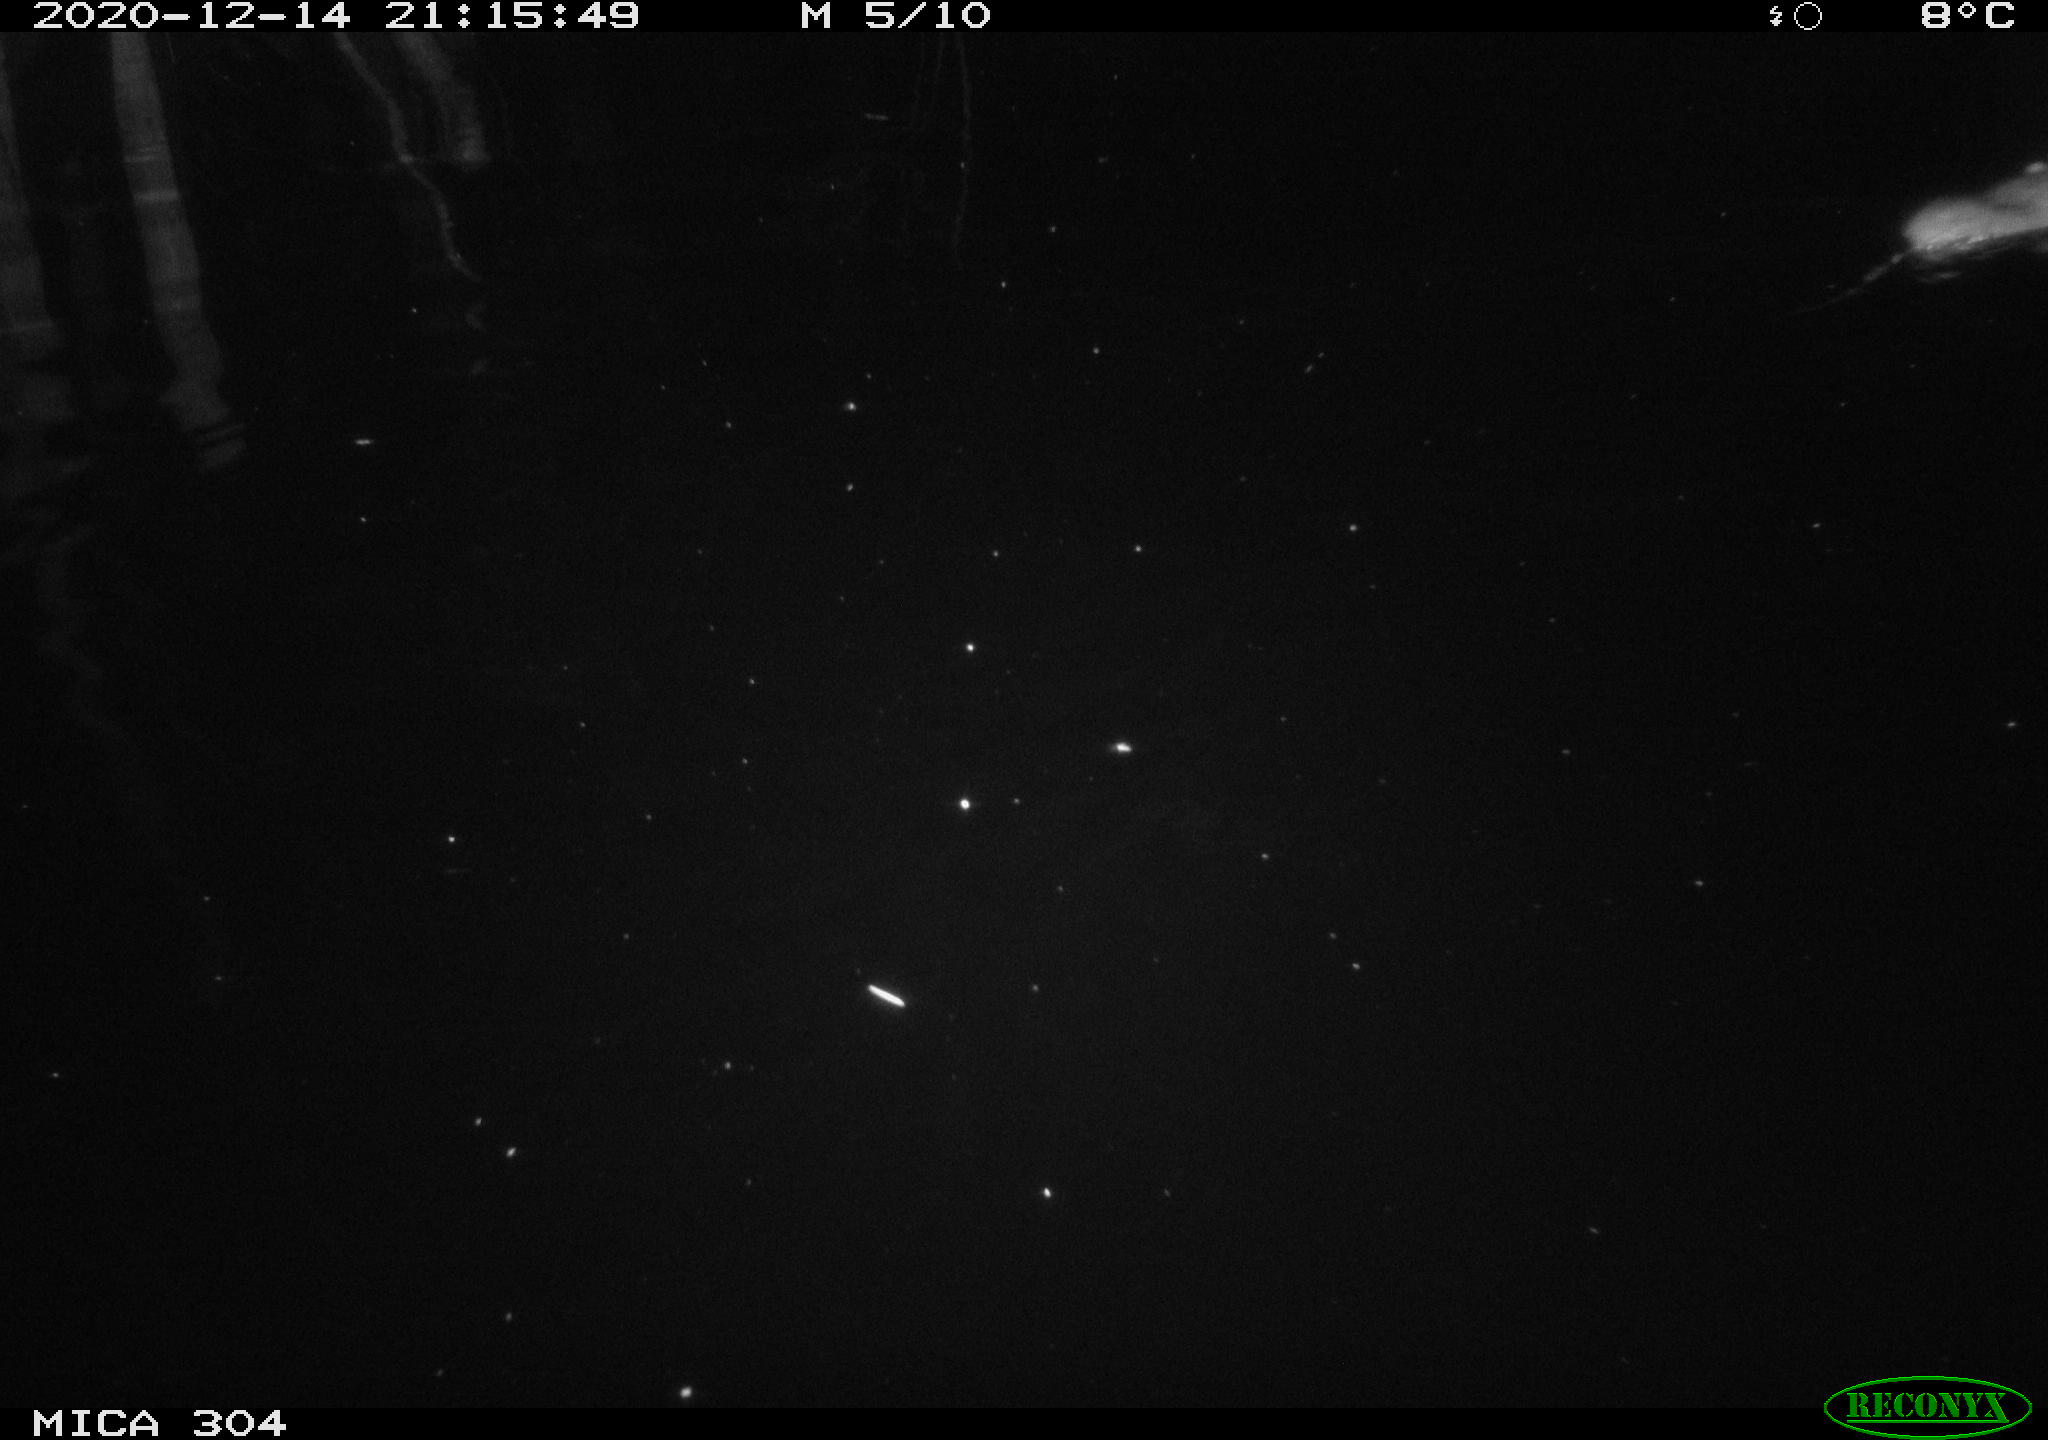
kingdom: Animalia
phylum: Chordata
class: Mammalia
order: Rodentia
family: Muridae
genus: Rattus
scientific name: Rattus norvegicus
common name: Brown rat
